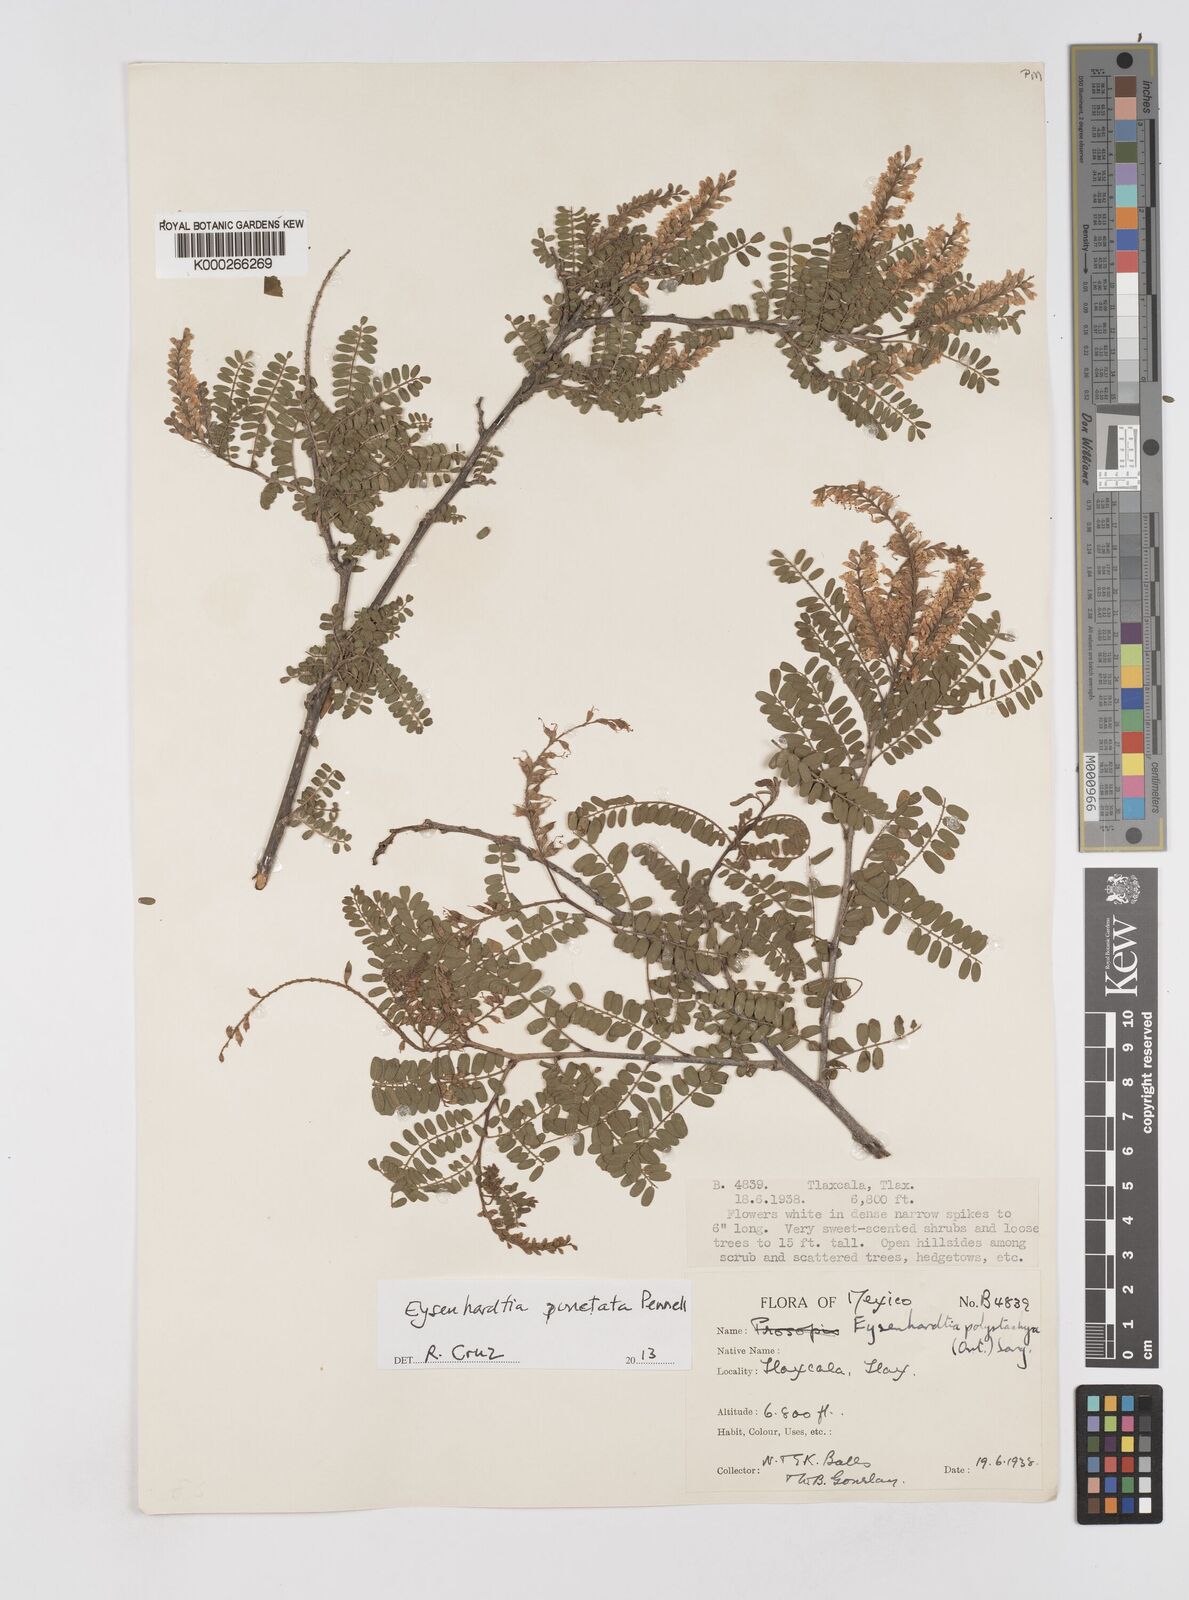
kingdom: Plantae
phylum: Tracheophyta
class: Magnoliopsida
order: Fabales
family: Fabaceae
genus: Eysenhardtia
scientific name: Eysenhardtia punctata
